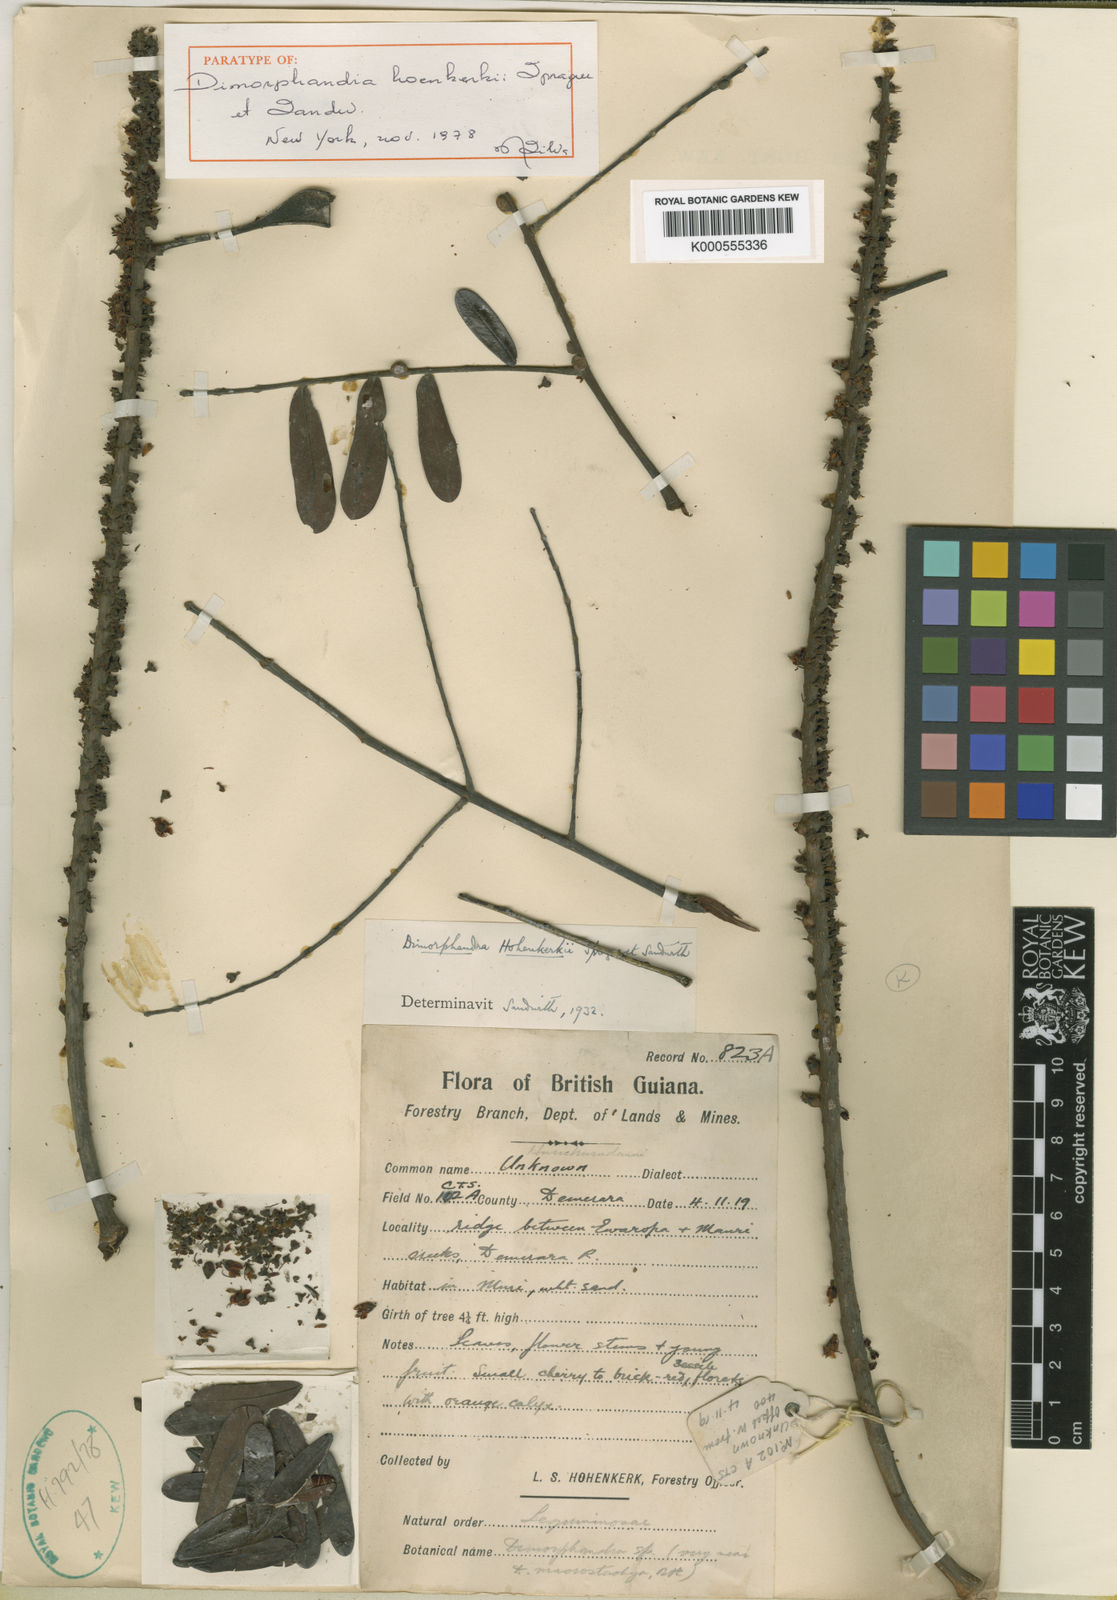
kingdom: Plantae
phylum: Tracheophyta
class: Magnoliopsida
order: Fabales
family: Fabaceae
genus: Dimorphandra
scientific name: Dimorphandra polyandra
